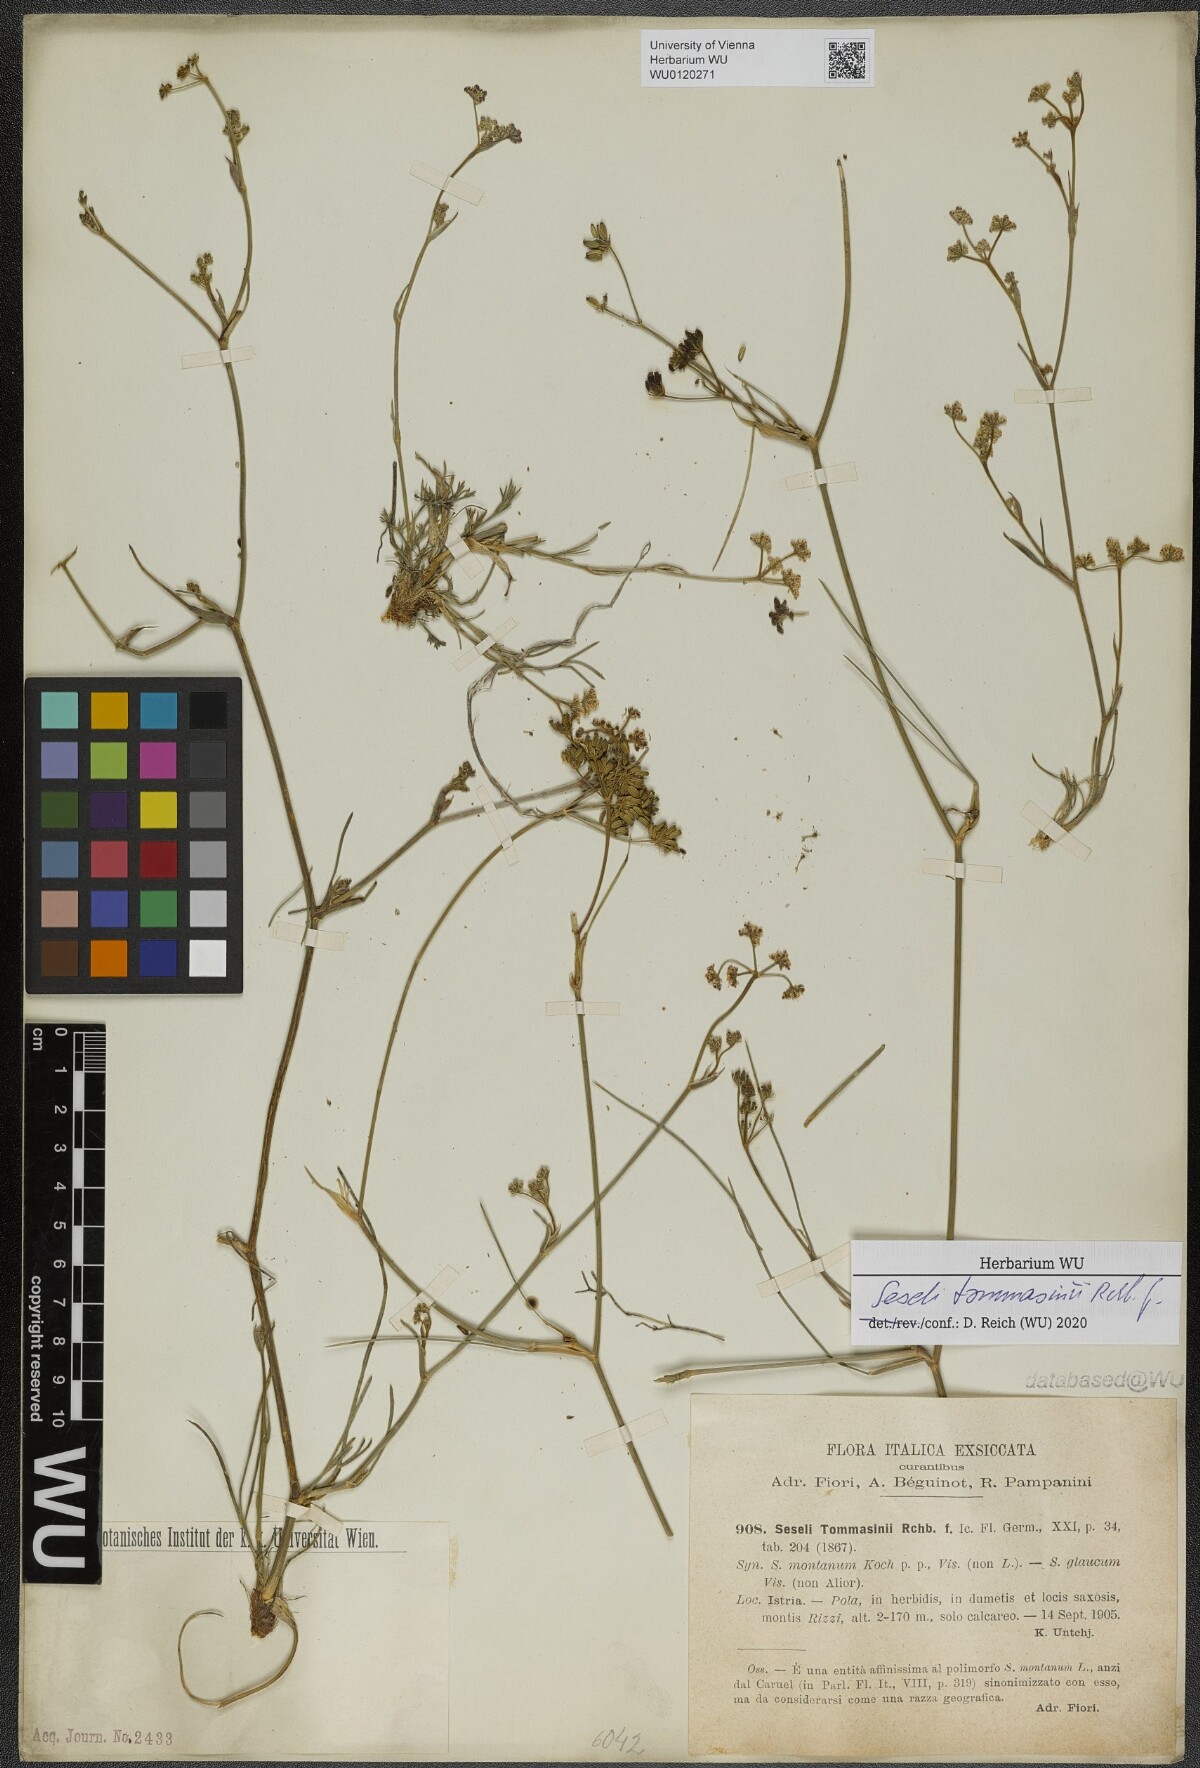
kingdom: Plantae
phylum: Tracheophyta
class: Magnoliopsida
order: Apiales
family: Apiaceae
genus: Seseli
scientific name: Seseli montanum
